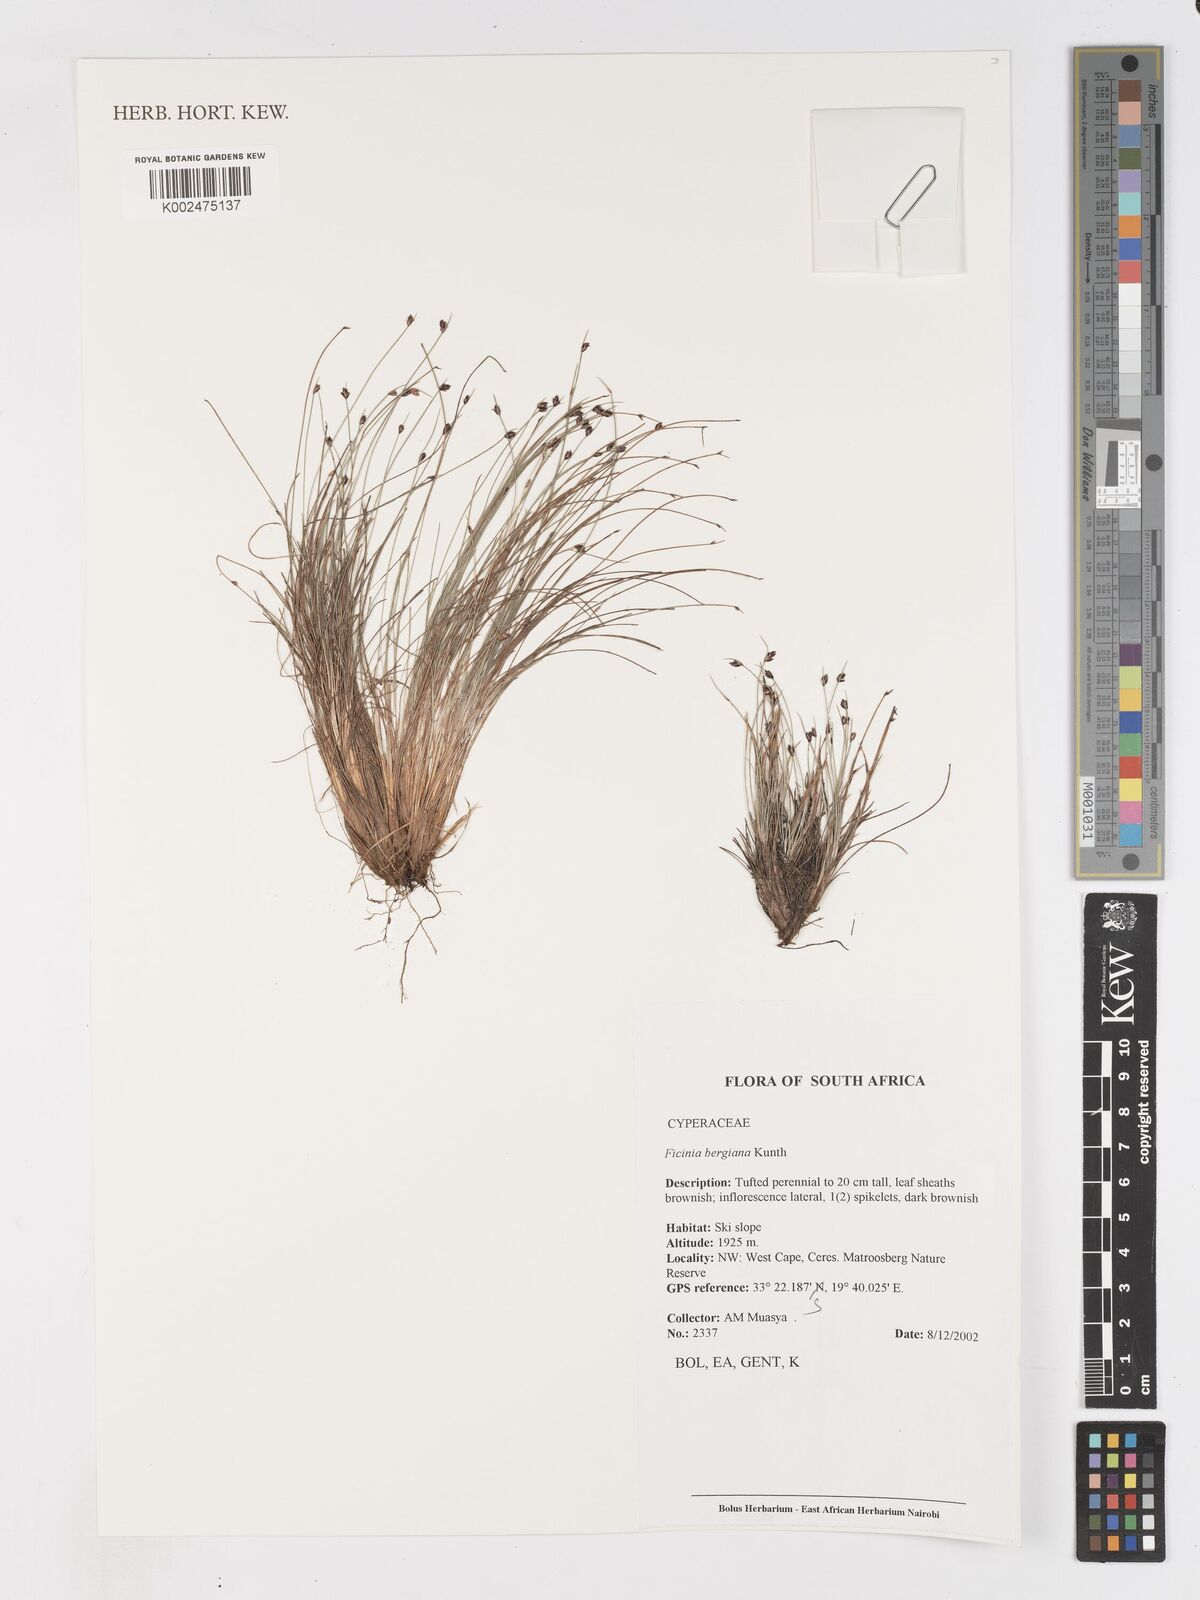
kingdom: Plantae
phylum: Tracheophyta
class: Liliopsida
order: Poales
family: Cyperaceae
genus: Ficinia
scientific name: Ficinia tristachya
